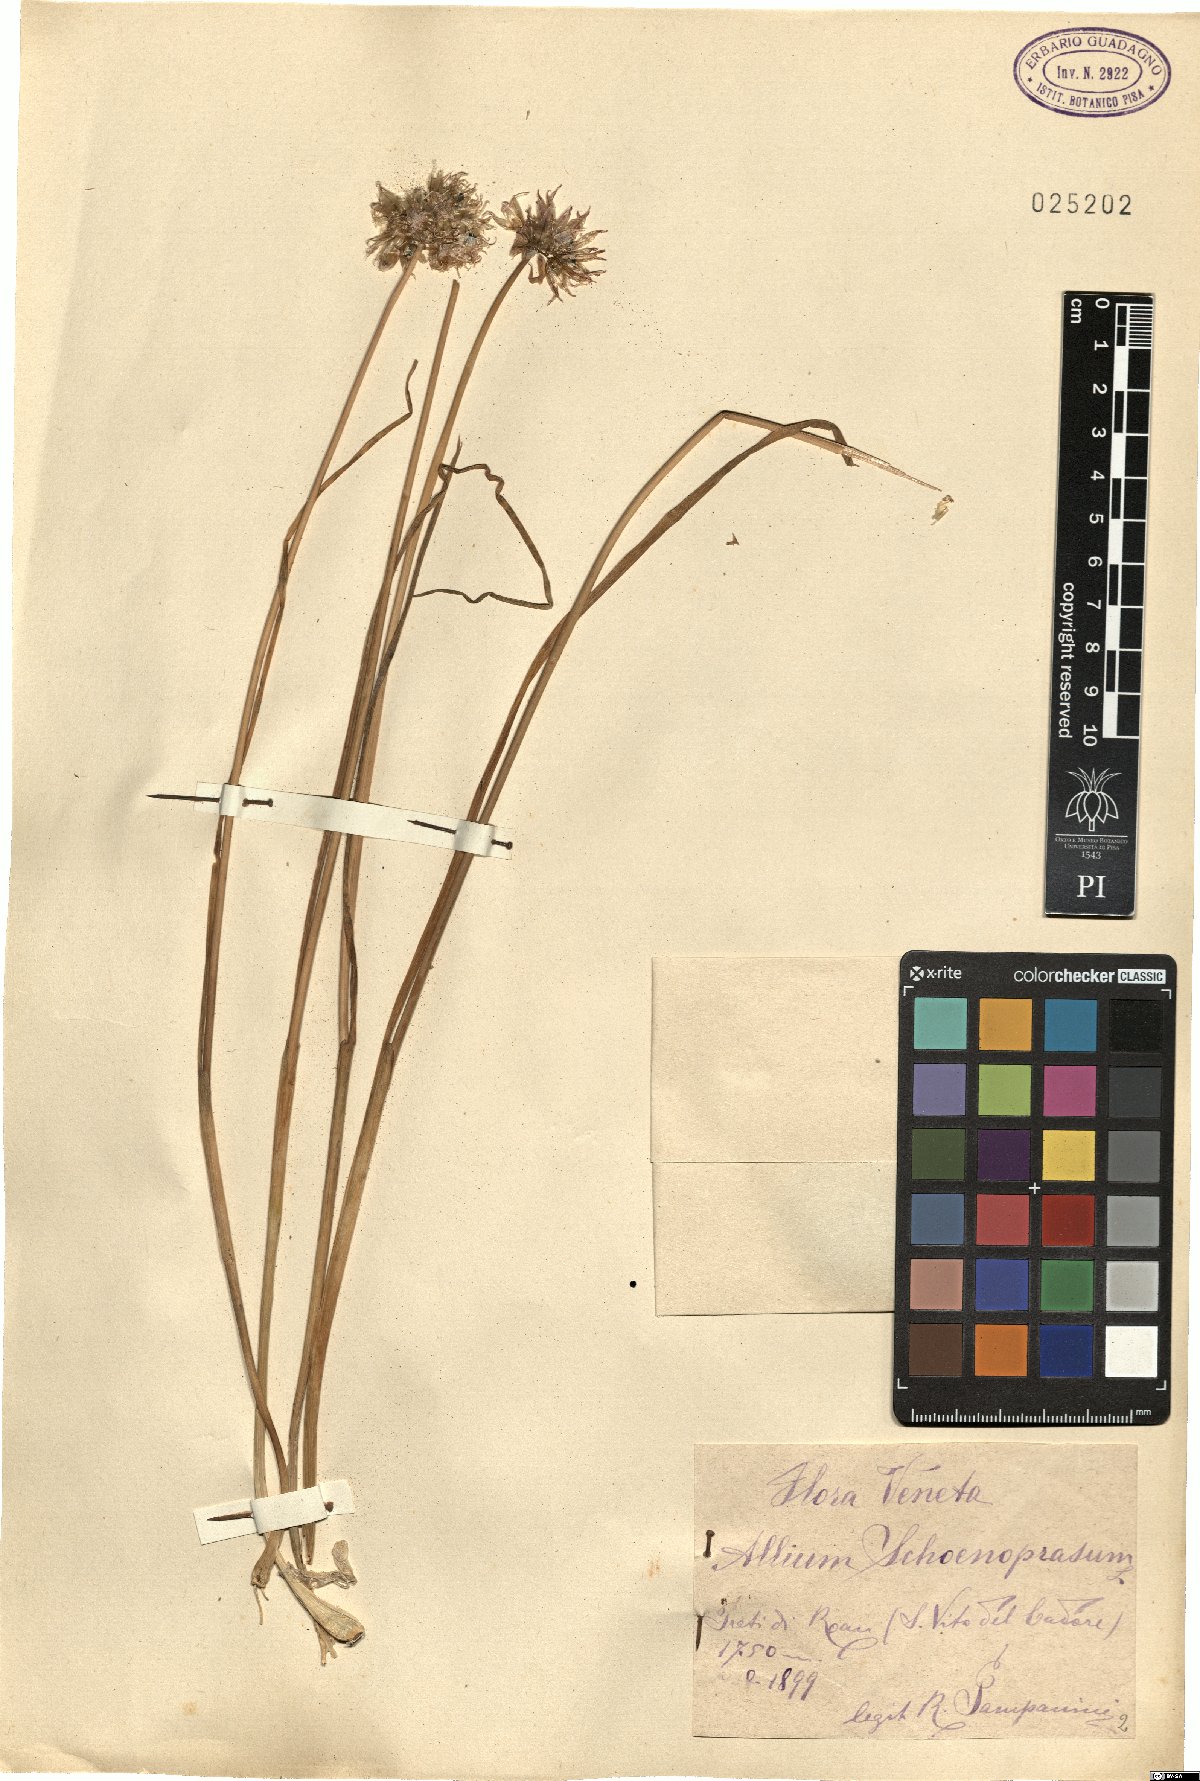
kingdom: Plantae
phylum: Tracheophyta
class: Liliopsida
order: Asparagales
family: Amaryllidaceae
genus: Allium
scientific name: Allium schoenoprasum
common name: Chives
